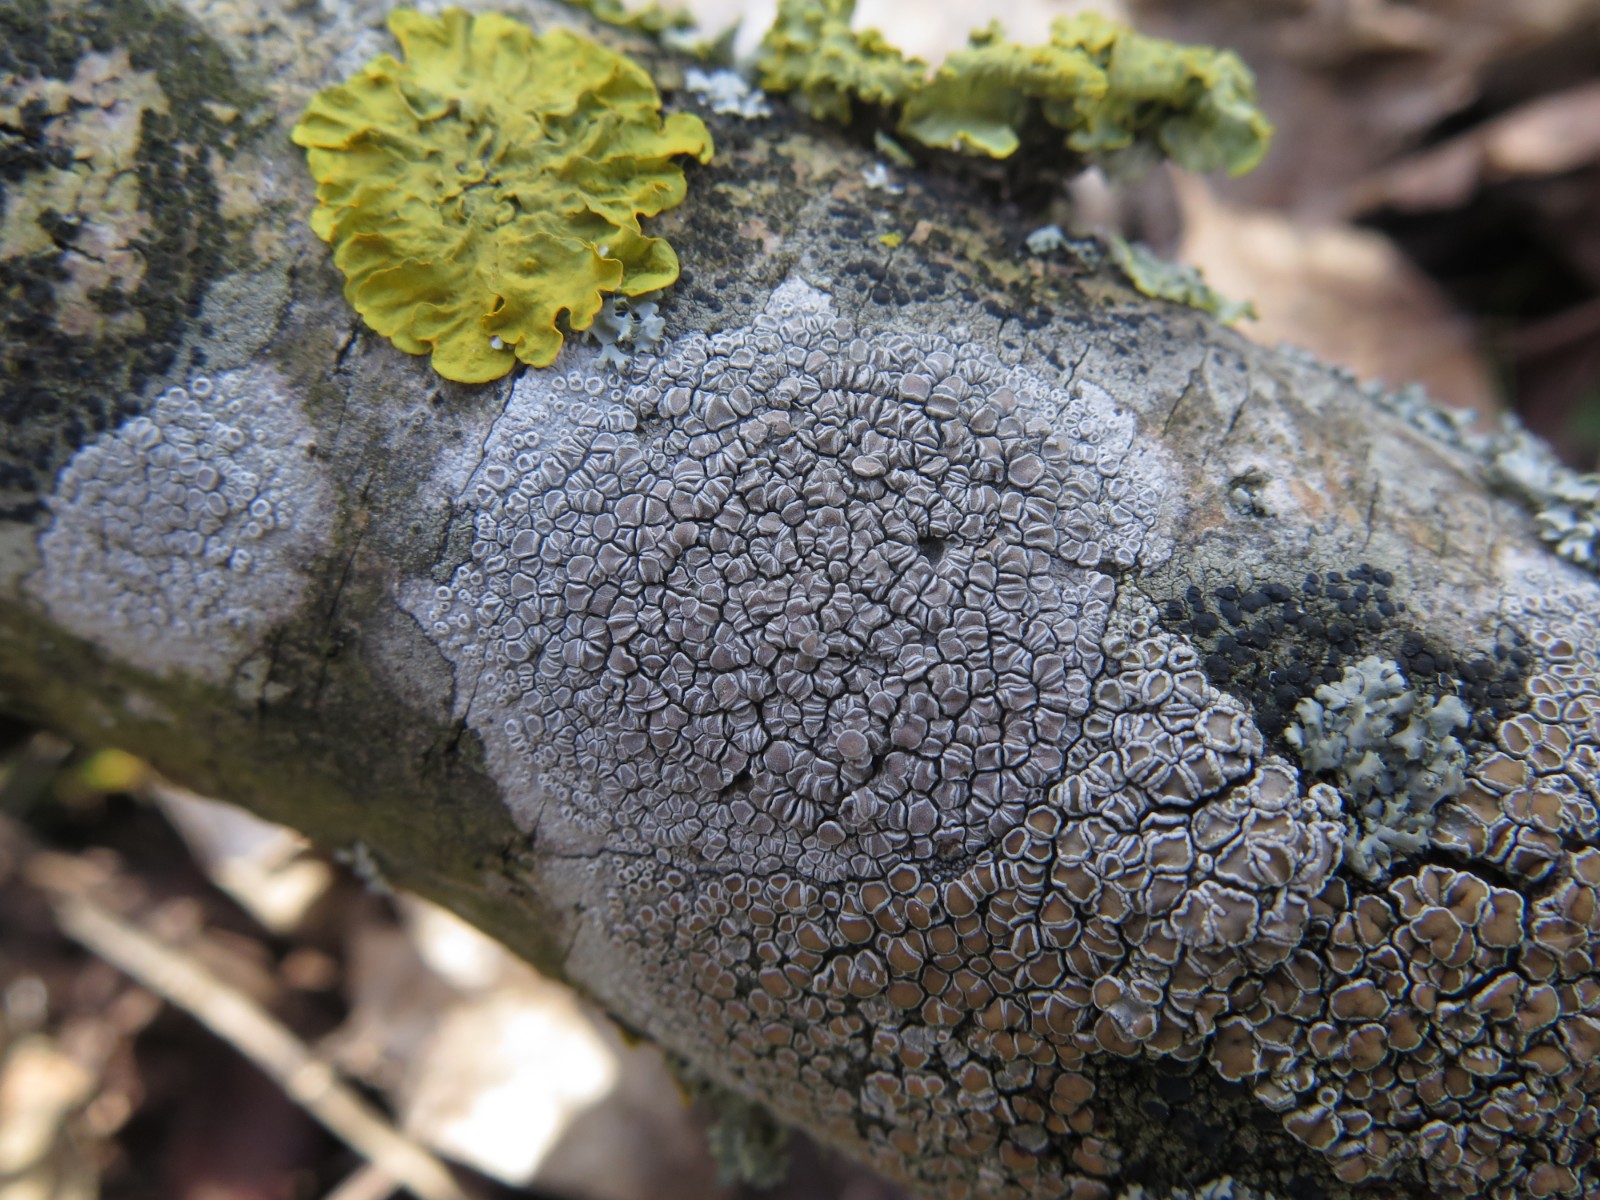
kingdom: Fungi
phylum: Ascomycota
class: Lecanoromycetes
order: Lecanorales
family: Lecanoraceae
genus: Glaucomaria
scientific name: Glaucomaria carpinea
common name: hviddugget kantskivelav
